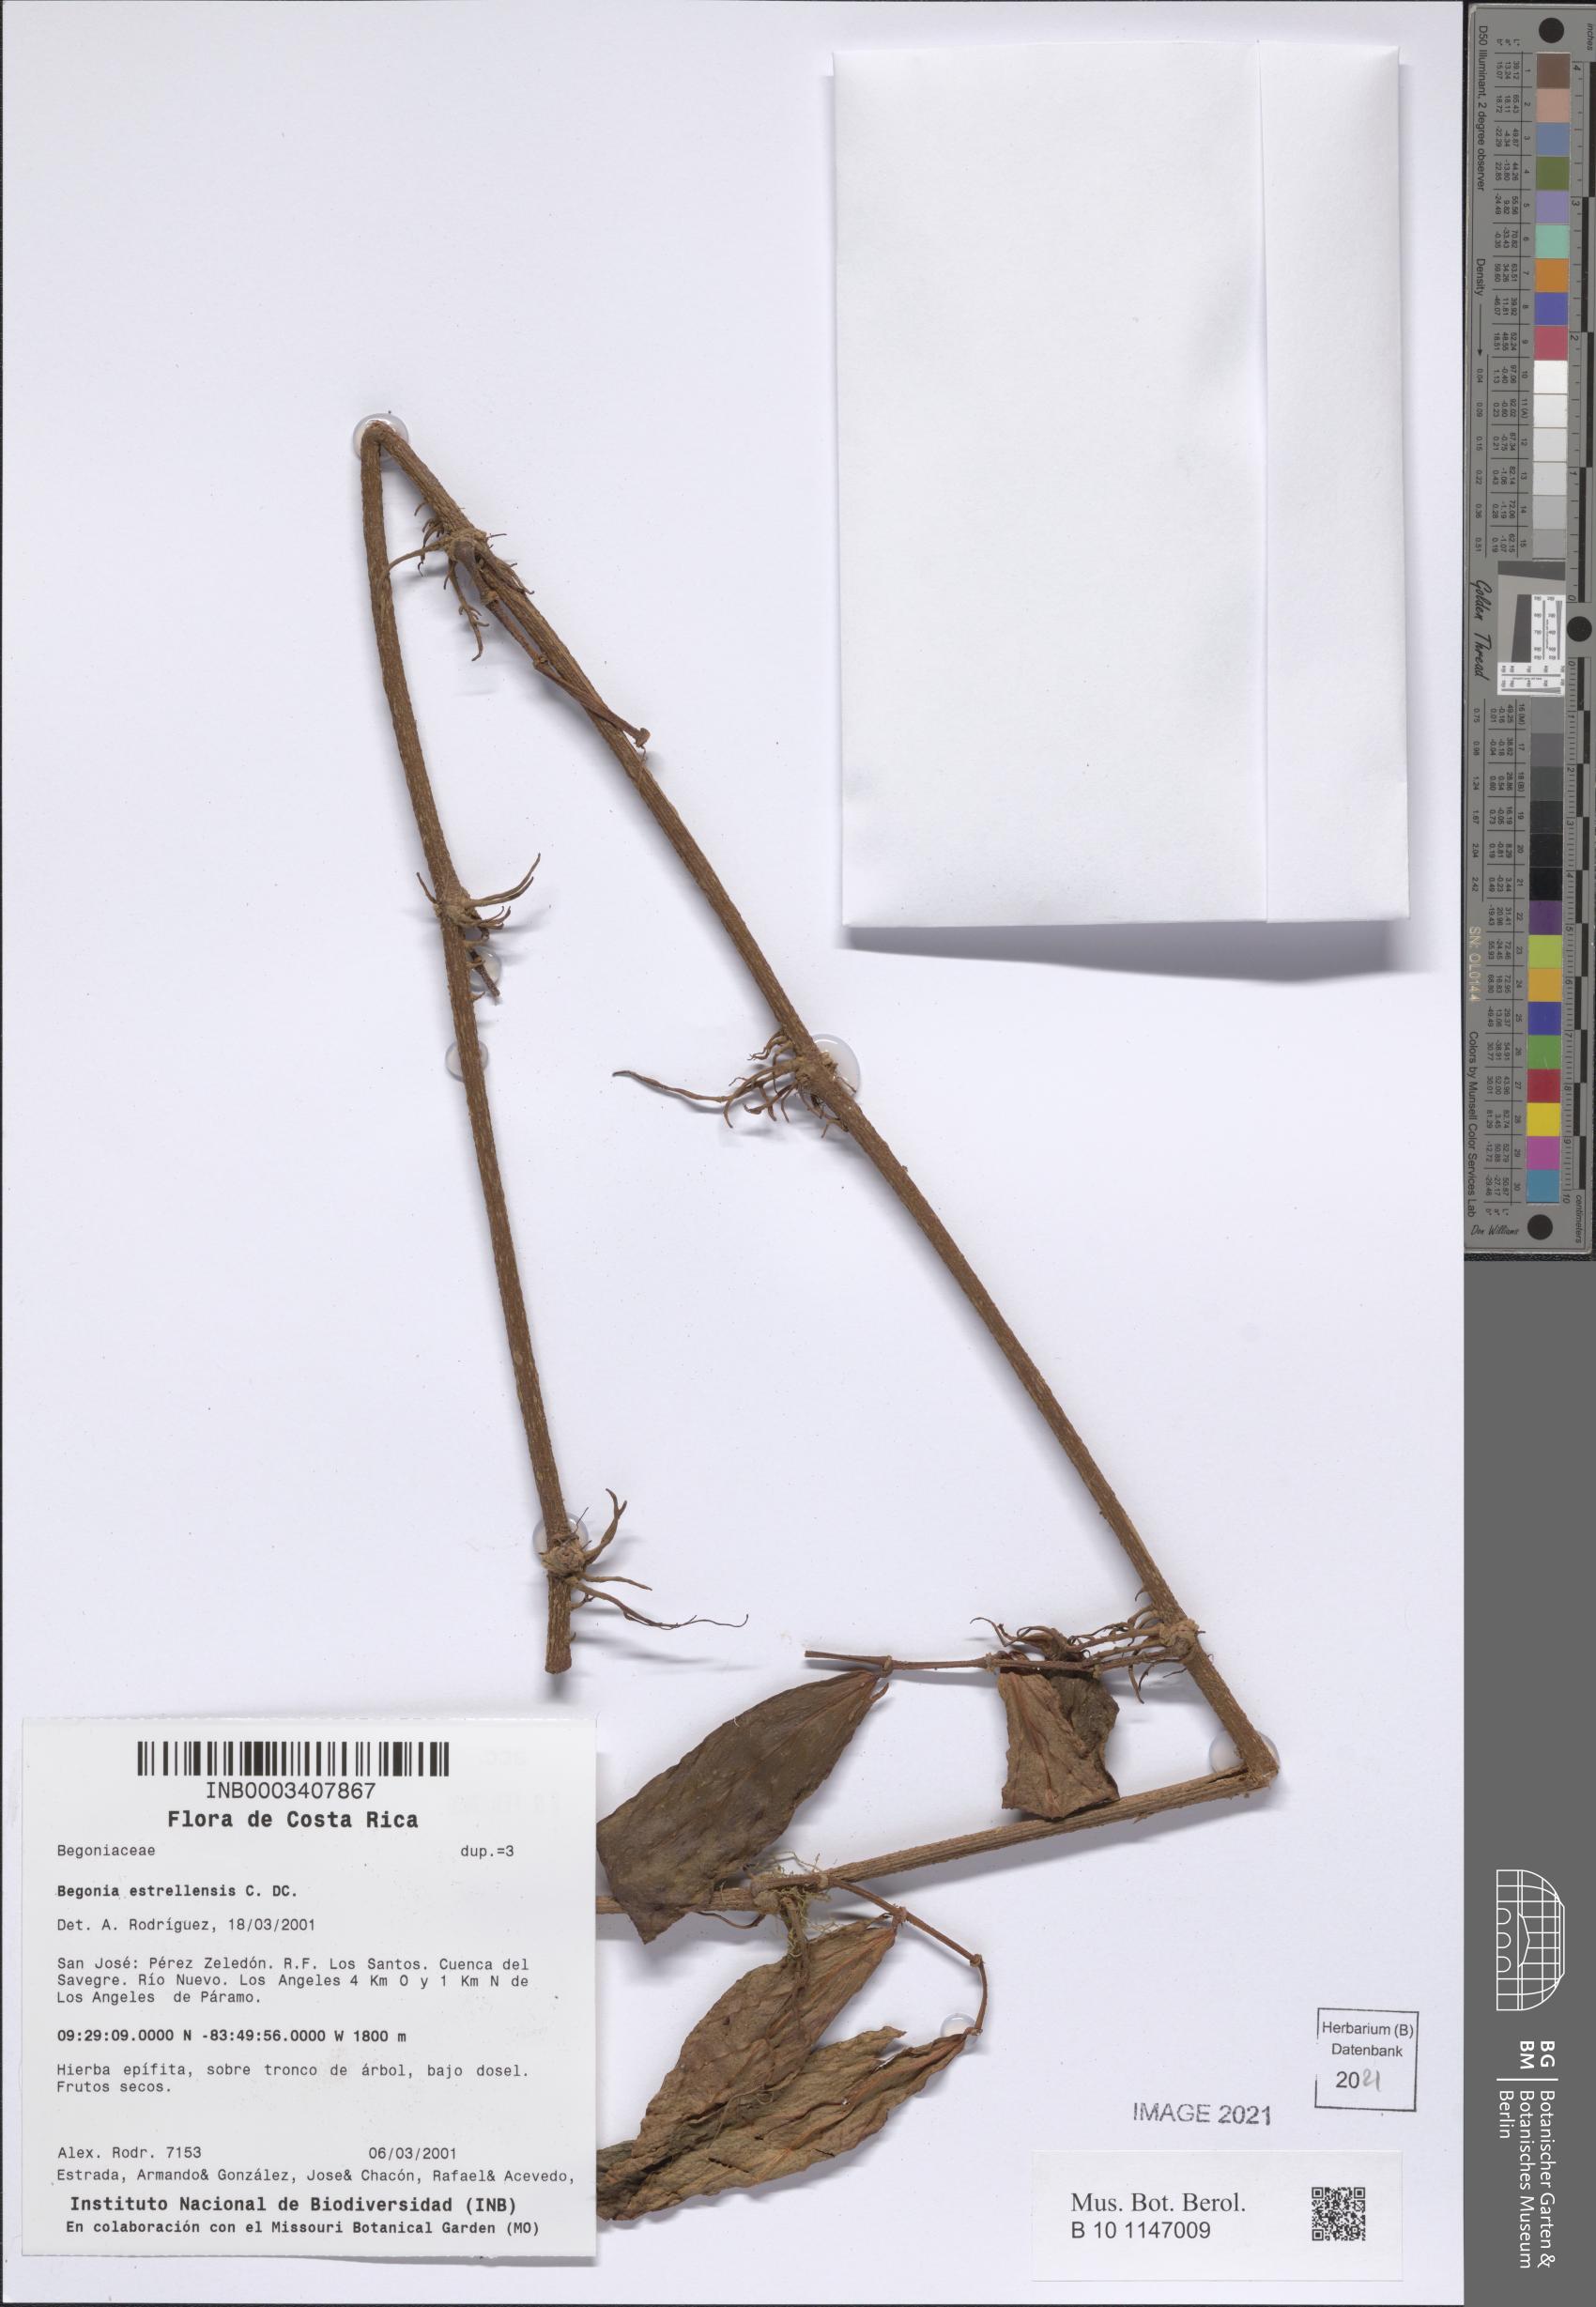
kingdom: Plantae
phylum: Tracheophyta
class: Magnoliopsida
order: Cucurbitales
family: Begoniaceae
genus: Begonia
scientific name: Begonia estrellensis
